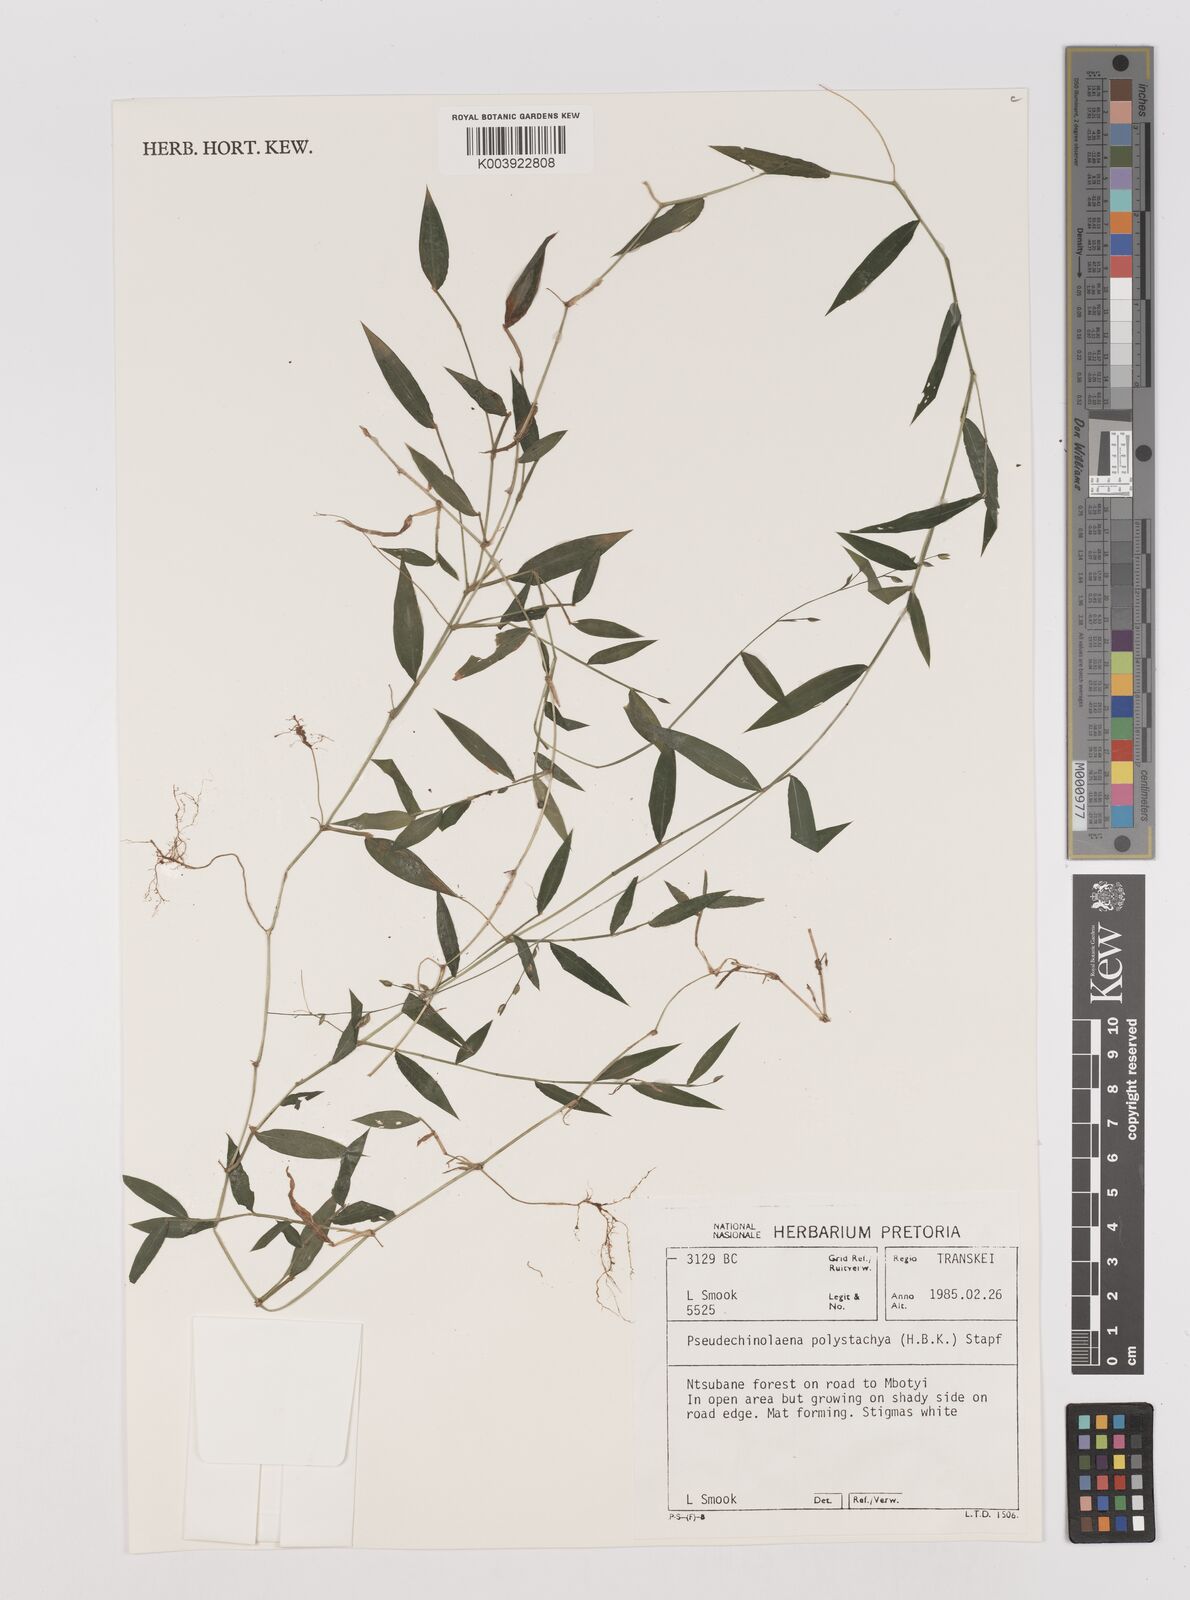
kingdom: Plantae
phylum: Tracheophyta
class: Liliopsida
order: Poales
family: Poaceae
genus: Pseudechinolaena
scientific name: Pseudechinolaena polystachya
